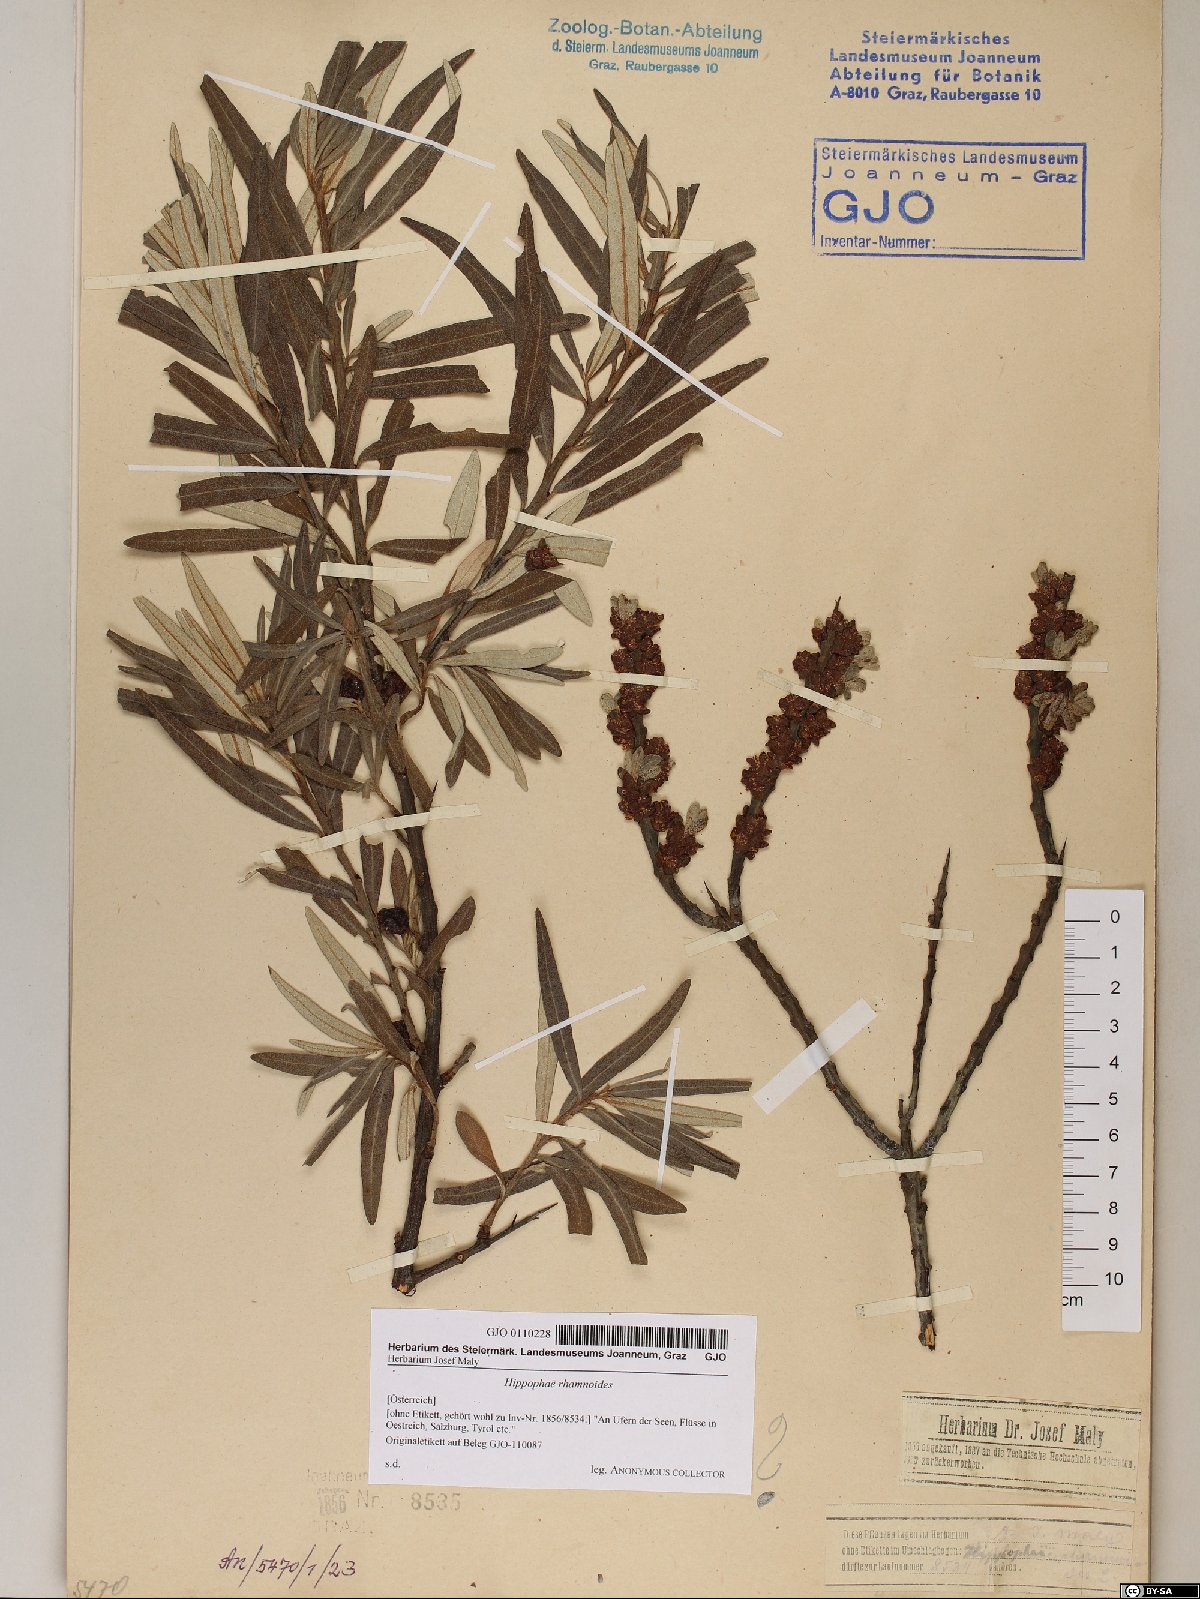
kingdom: Plantae
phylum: Tracheophyta
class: Magnoliopsida
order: Rosales
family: Elaeagnaceae
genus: Hippophae
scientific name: Hippophae rhamnoides
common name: Sea-buckthorn
